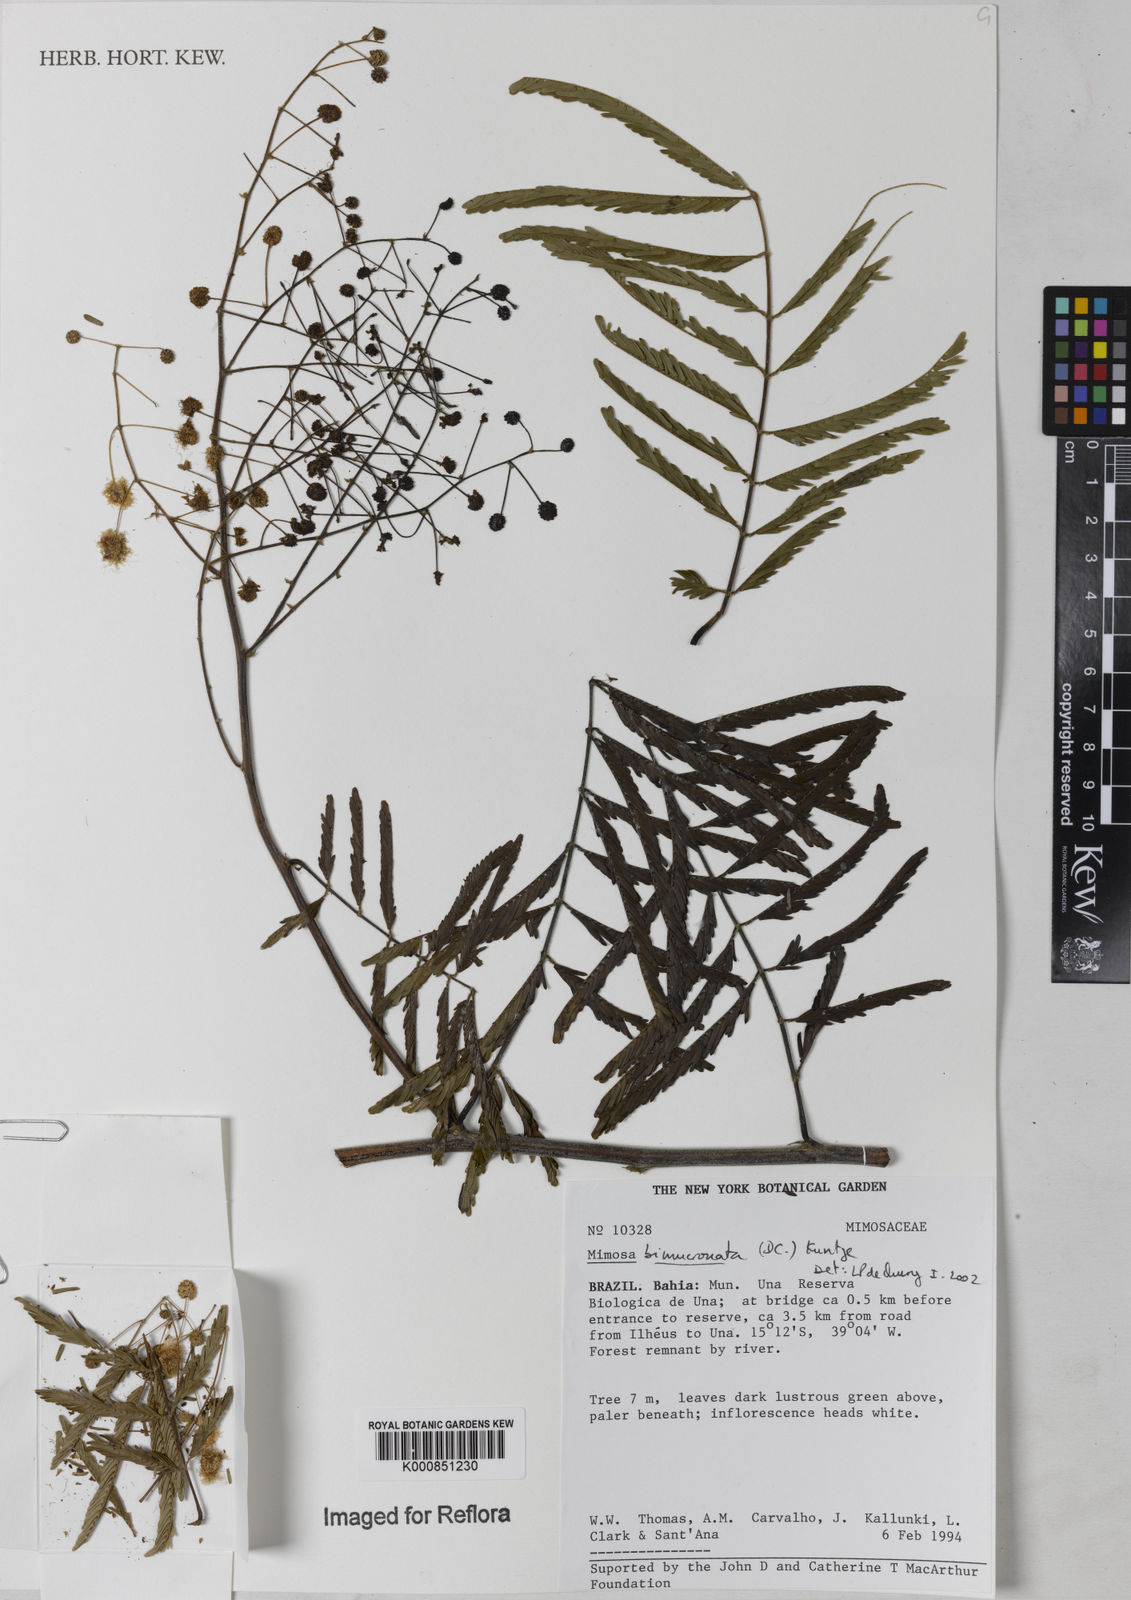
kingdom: Plantae
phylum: Tracheophyta
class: Magnoliopsida
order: Fabales
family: Fabaceae
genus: Mimosa
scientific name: Mimosa bimucronata
